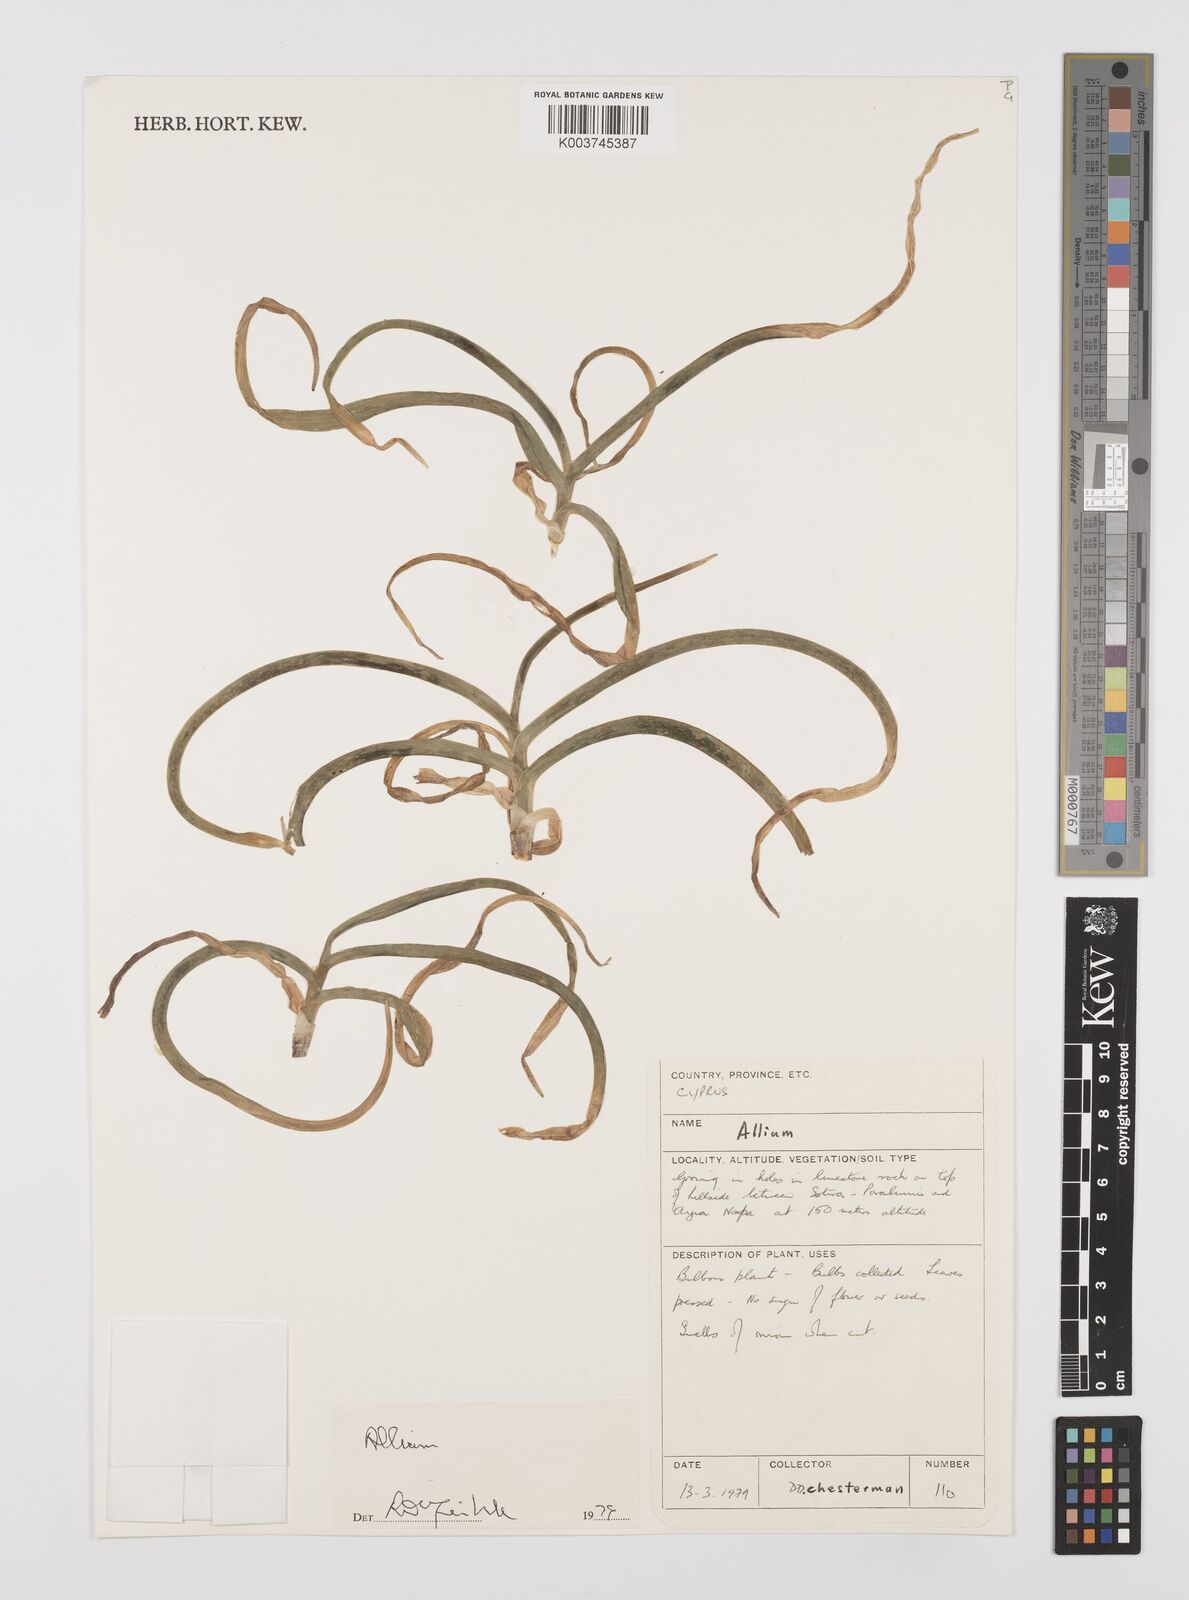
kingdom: Plantae
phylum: Tracheophyta
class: Liliopsida
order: Asparagales
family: Amaryllidaceae
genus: Allium
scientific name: Allium
